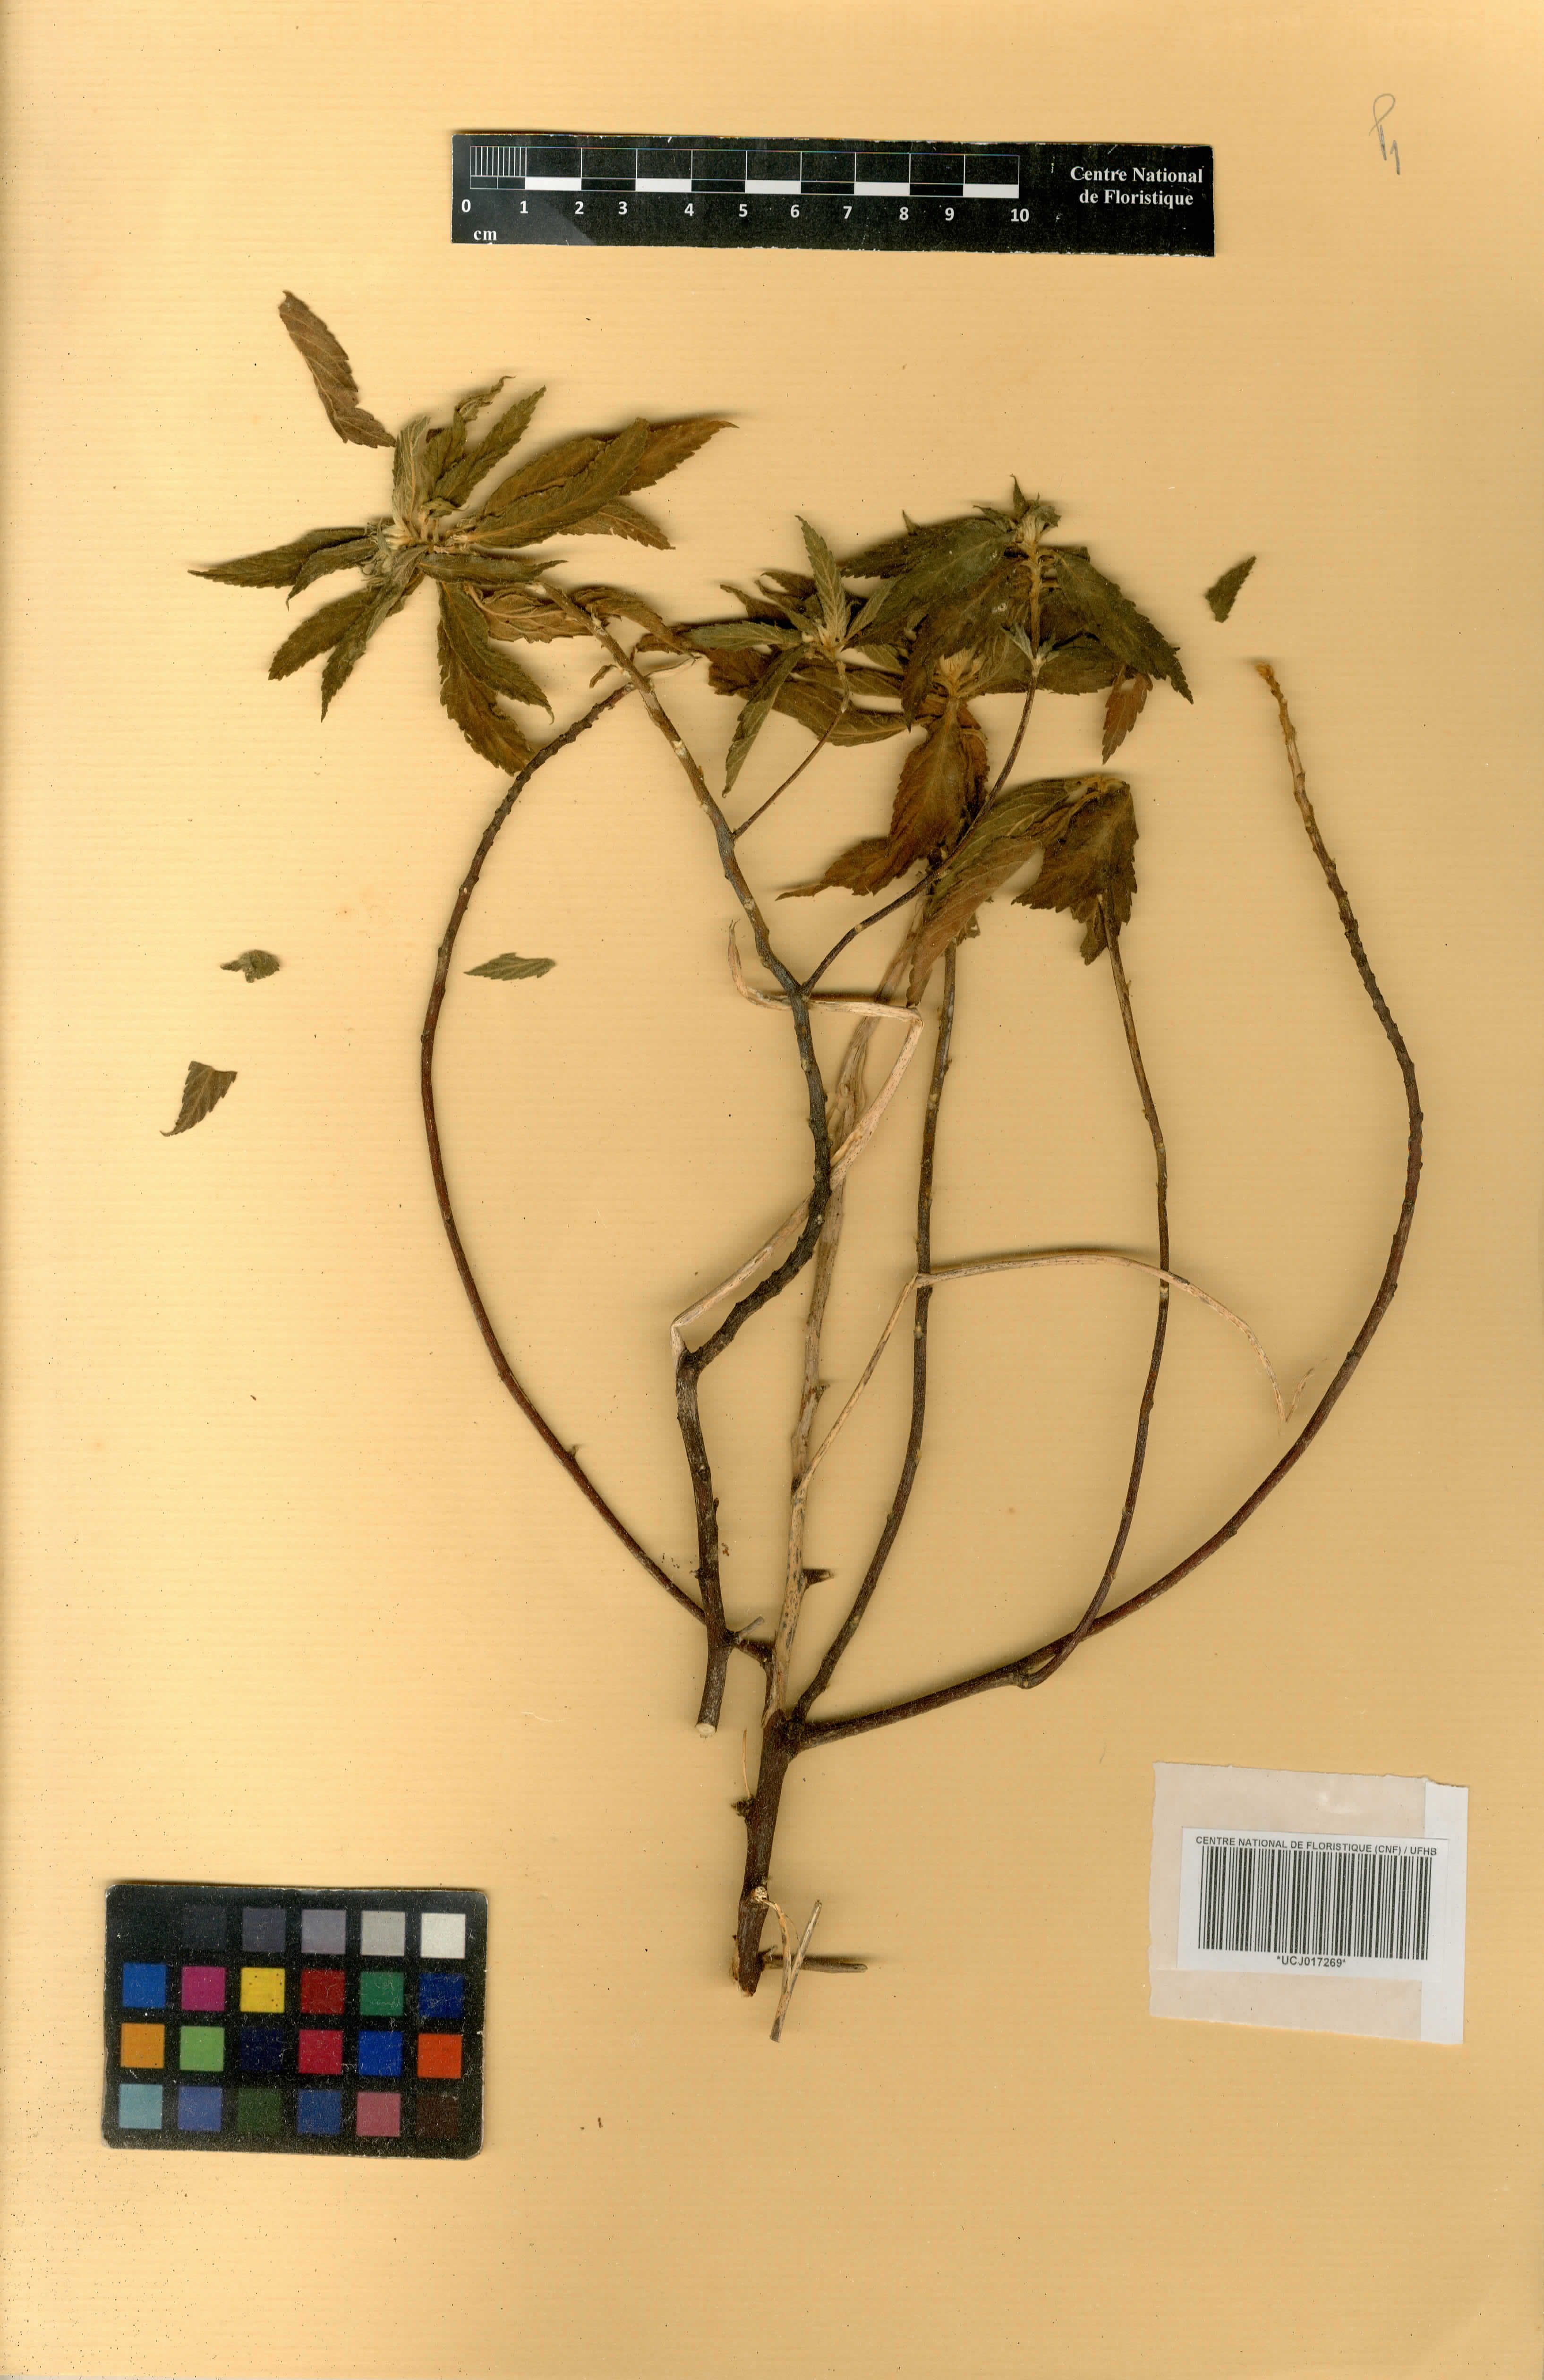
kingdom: Plantae
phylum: Tracheophyta
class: Magnoliopsida
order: Malpighiales
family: Turneraceae
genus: Turnera
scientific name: Turnera ulmifolia
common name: Ramgoat dashalong
